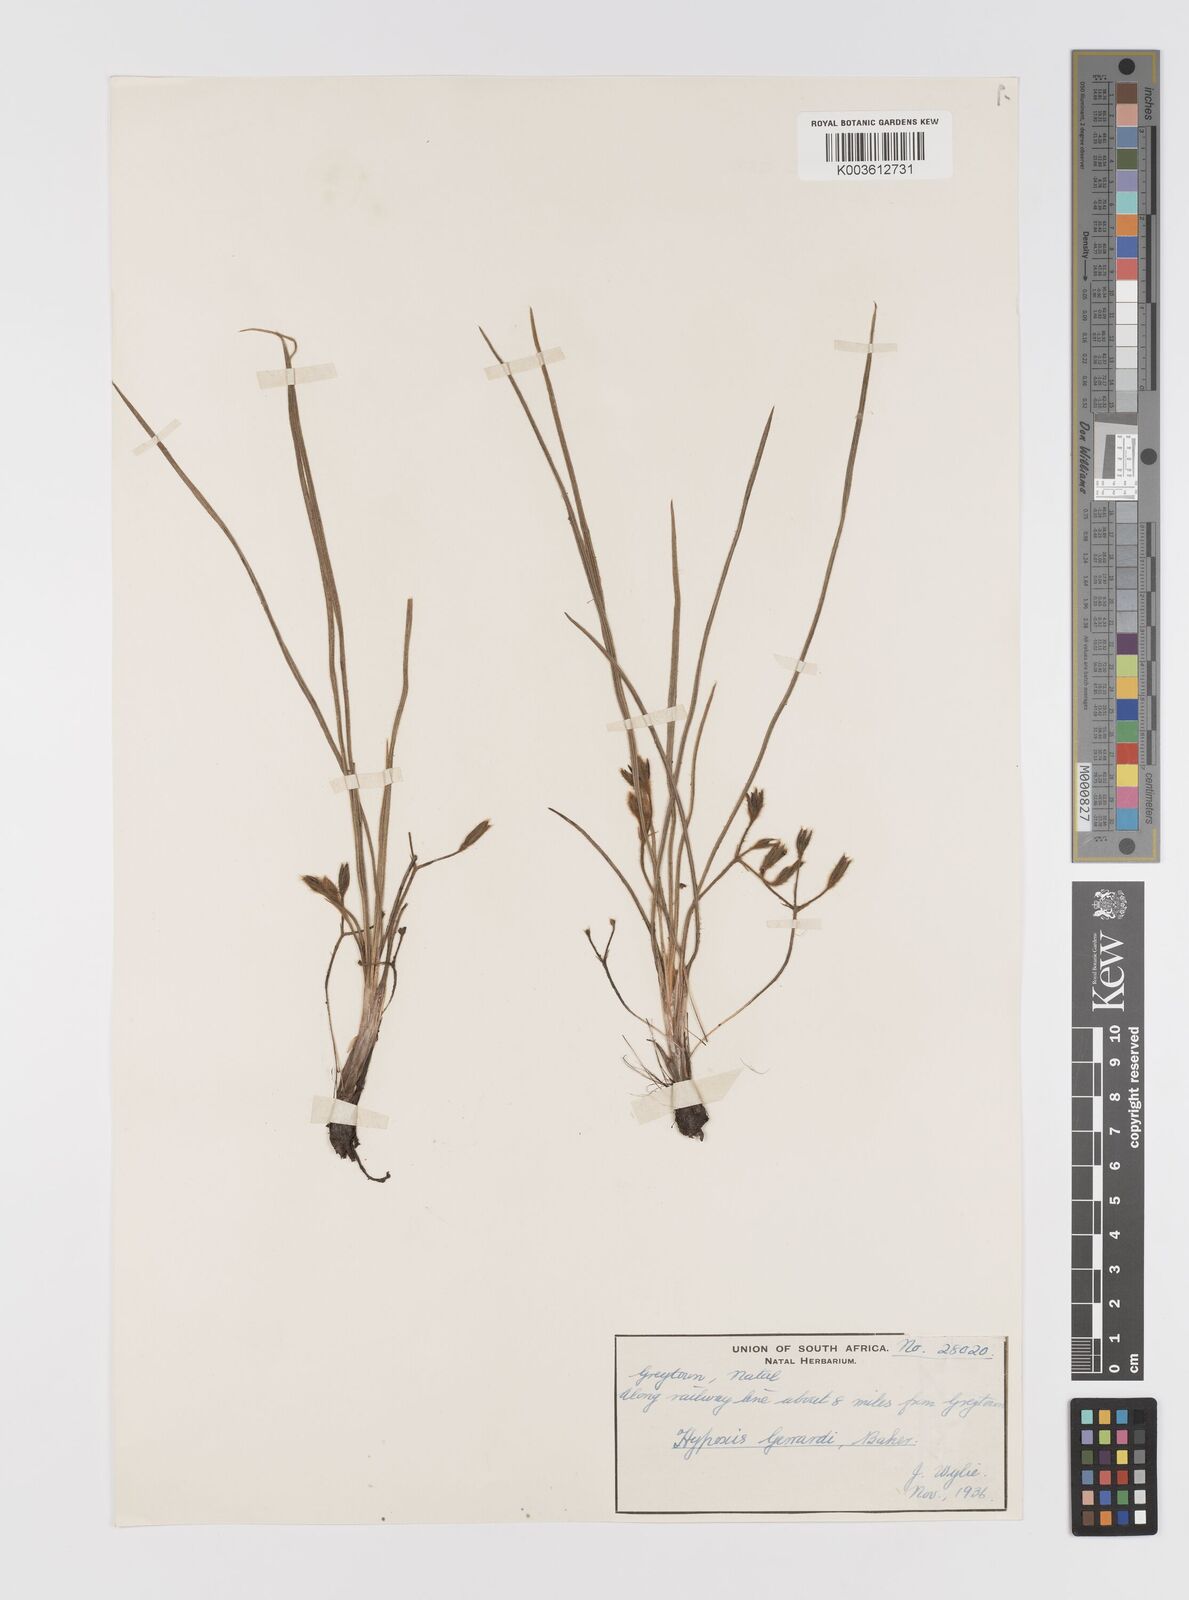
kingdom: Plantae
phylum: Tracheophyta
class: Liliopsida
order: Asparagales
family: Hypoxidaceae
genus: Hypoxis
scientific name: Hypoxis gerrardii
